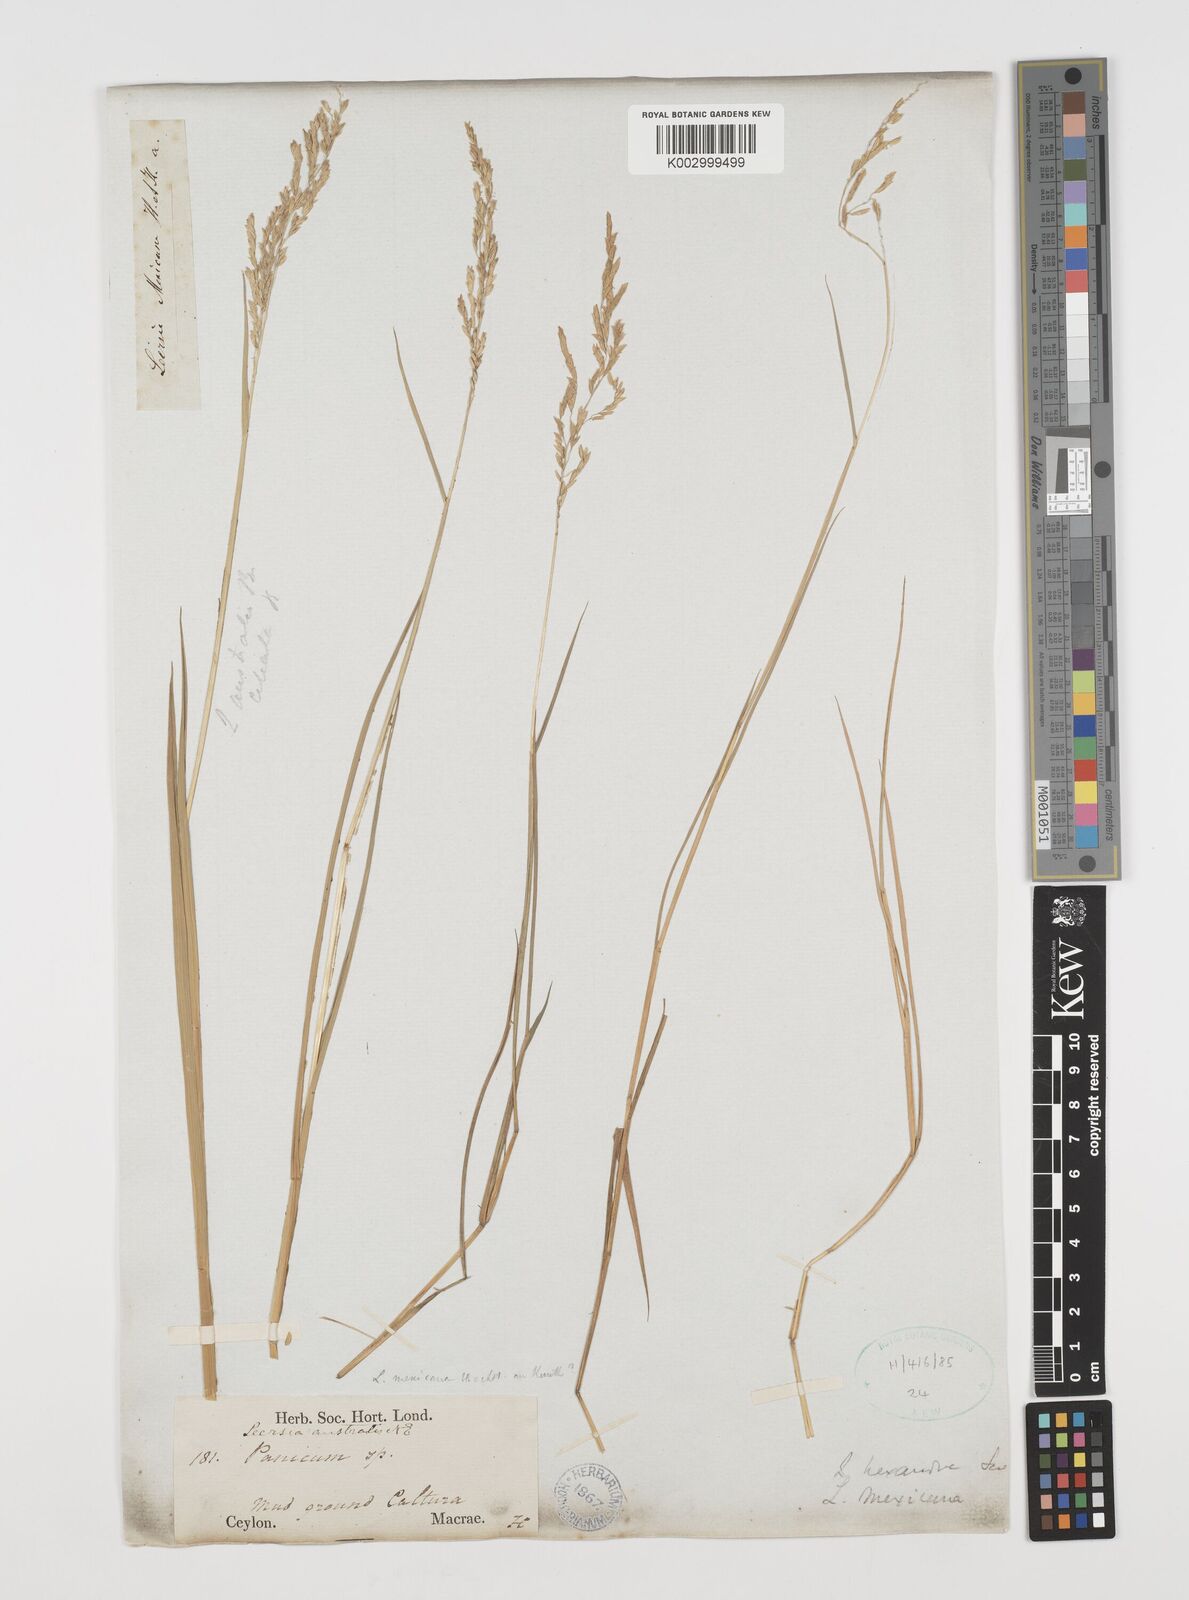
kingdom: Plantae
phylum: Tracheophyta
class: Liliopsida
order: Poales
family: Poaceae
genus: Leersia
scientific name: Leersia hexandra
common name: Southern cut grass
